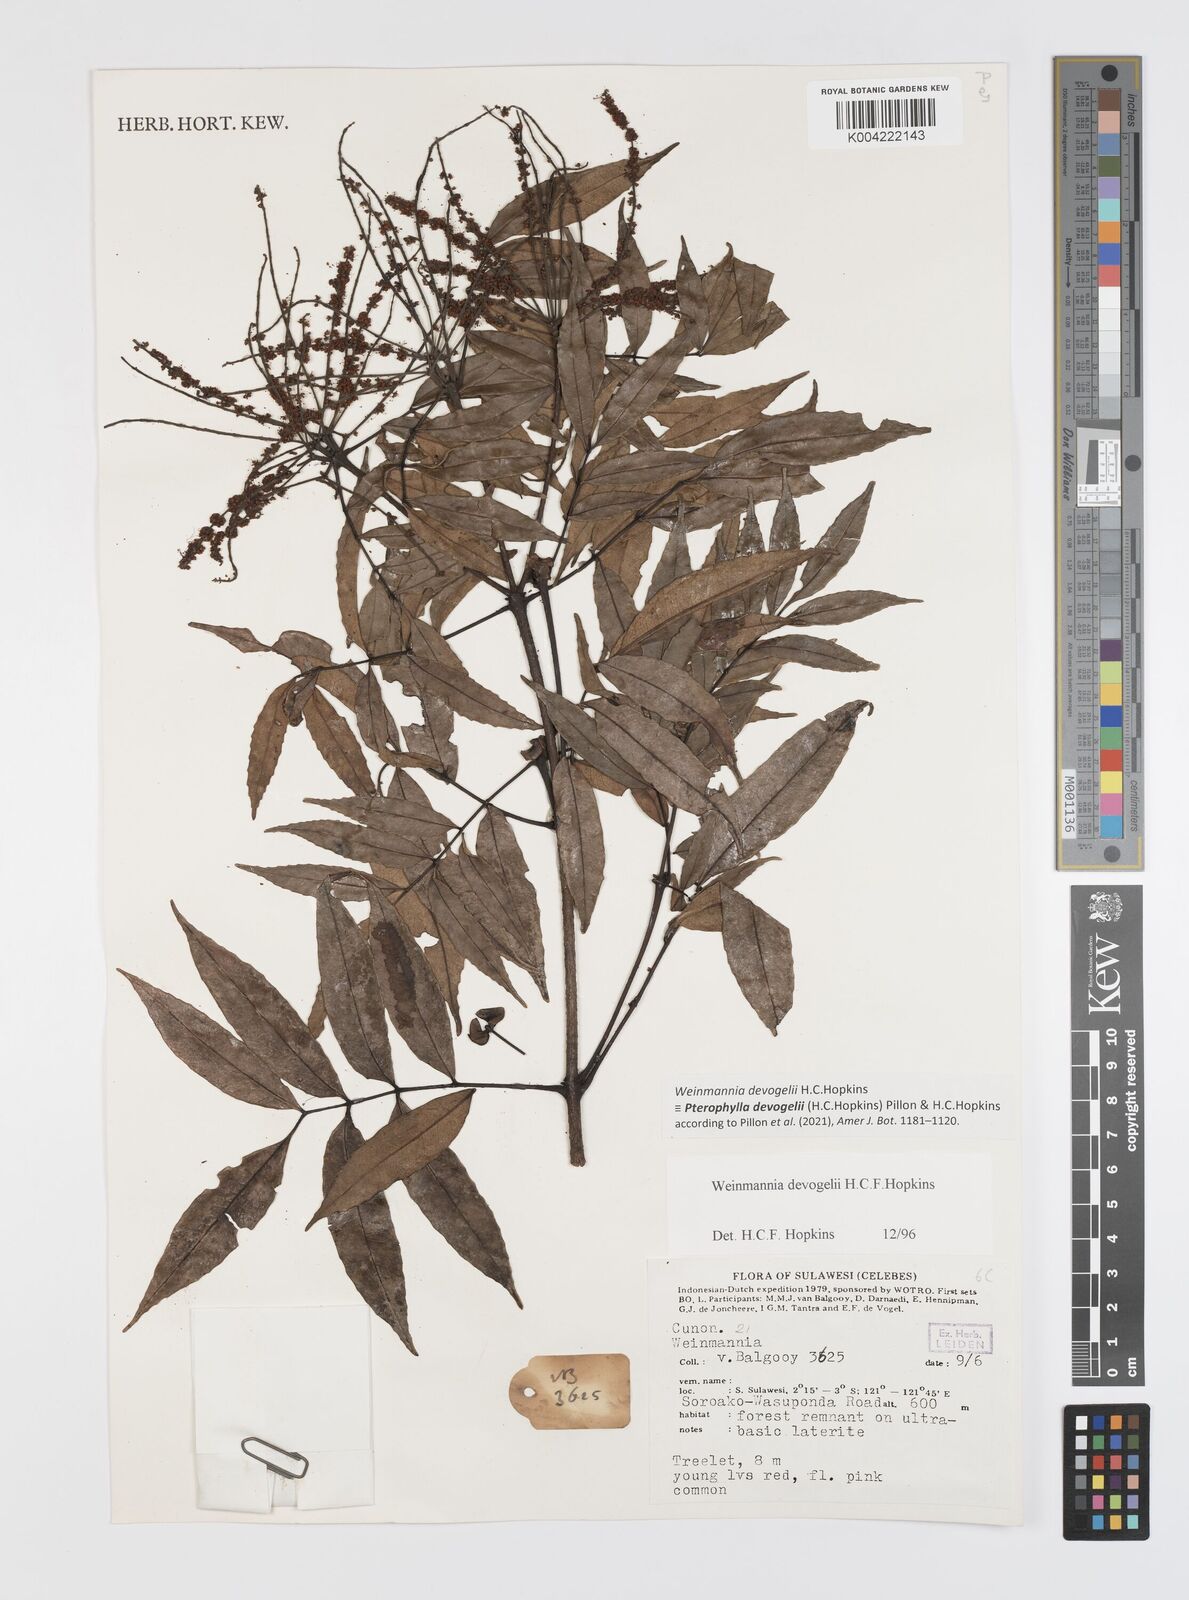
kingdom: Plantae
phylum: Tracheophyta
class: Magnoliopsida
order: Oxalidales
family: Cunoniaceae
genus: Pterophylla
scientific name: Pterophylla devogelii
